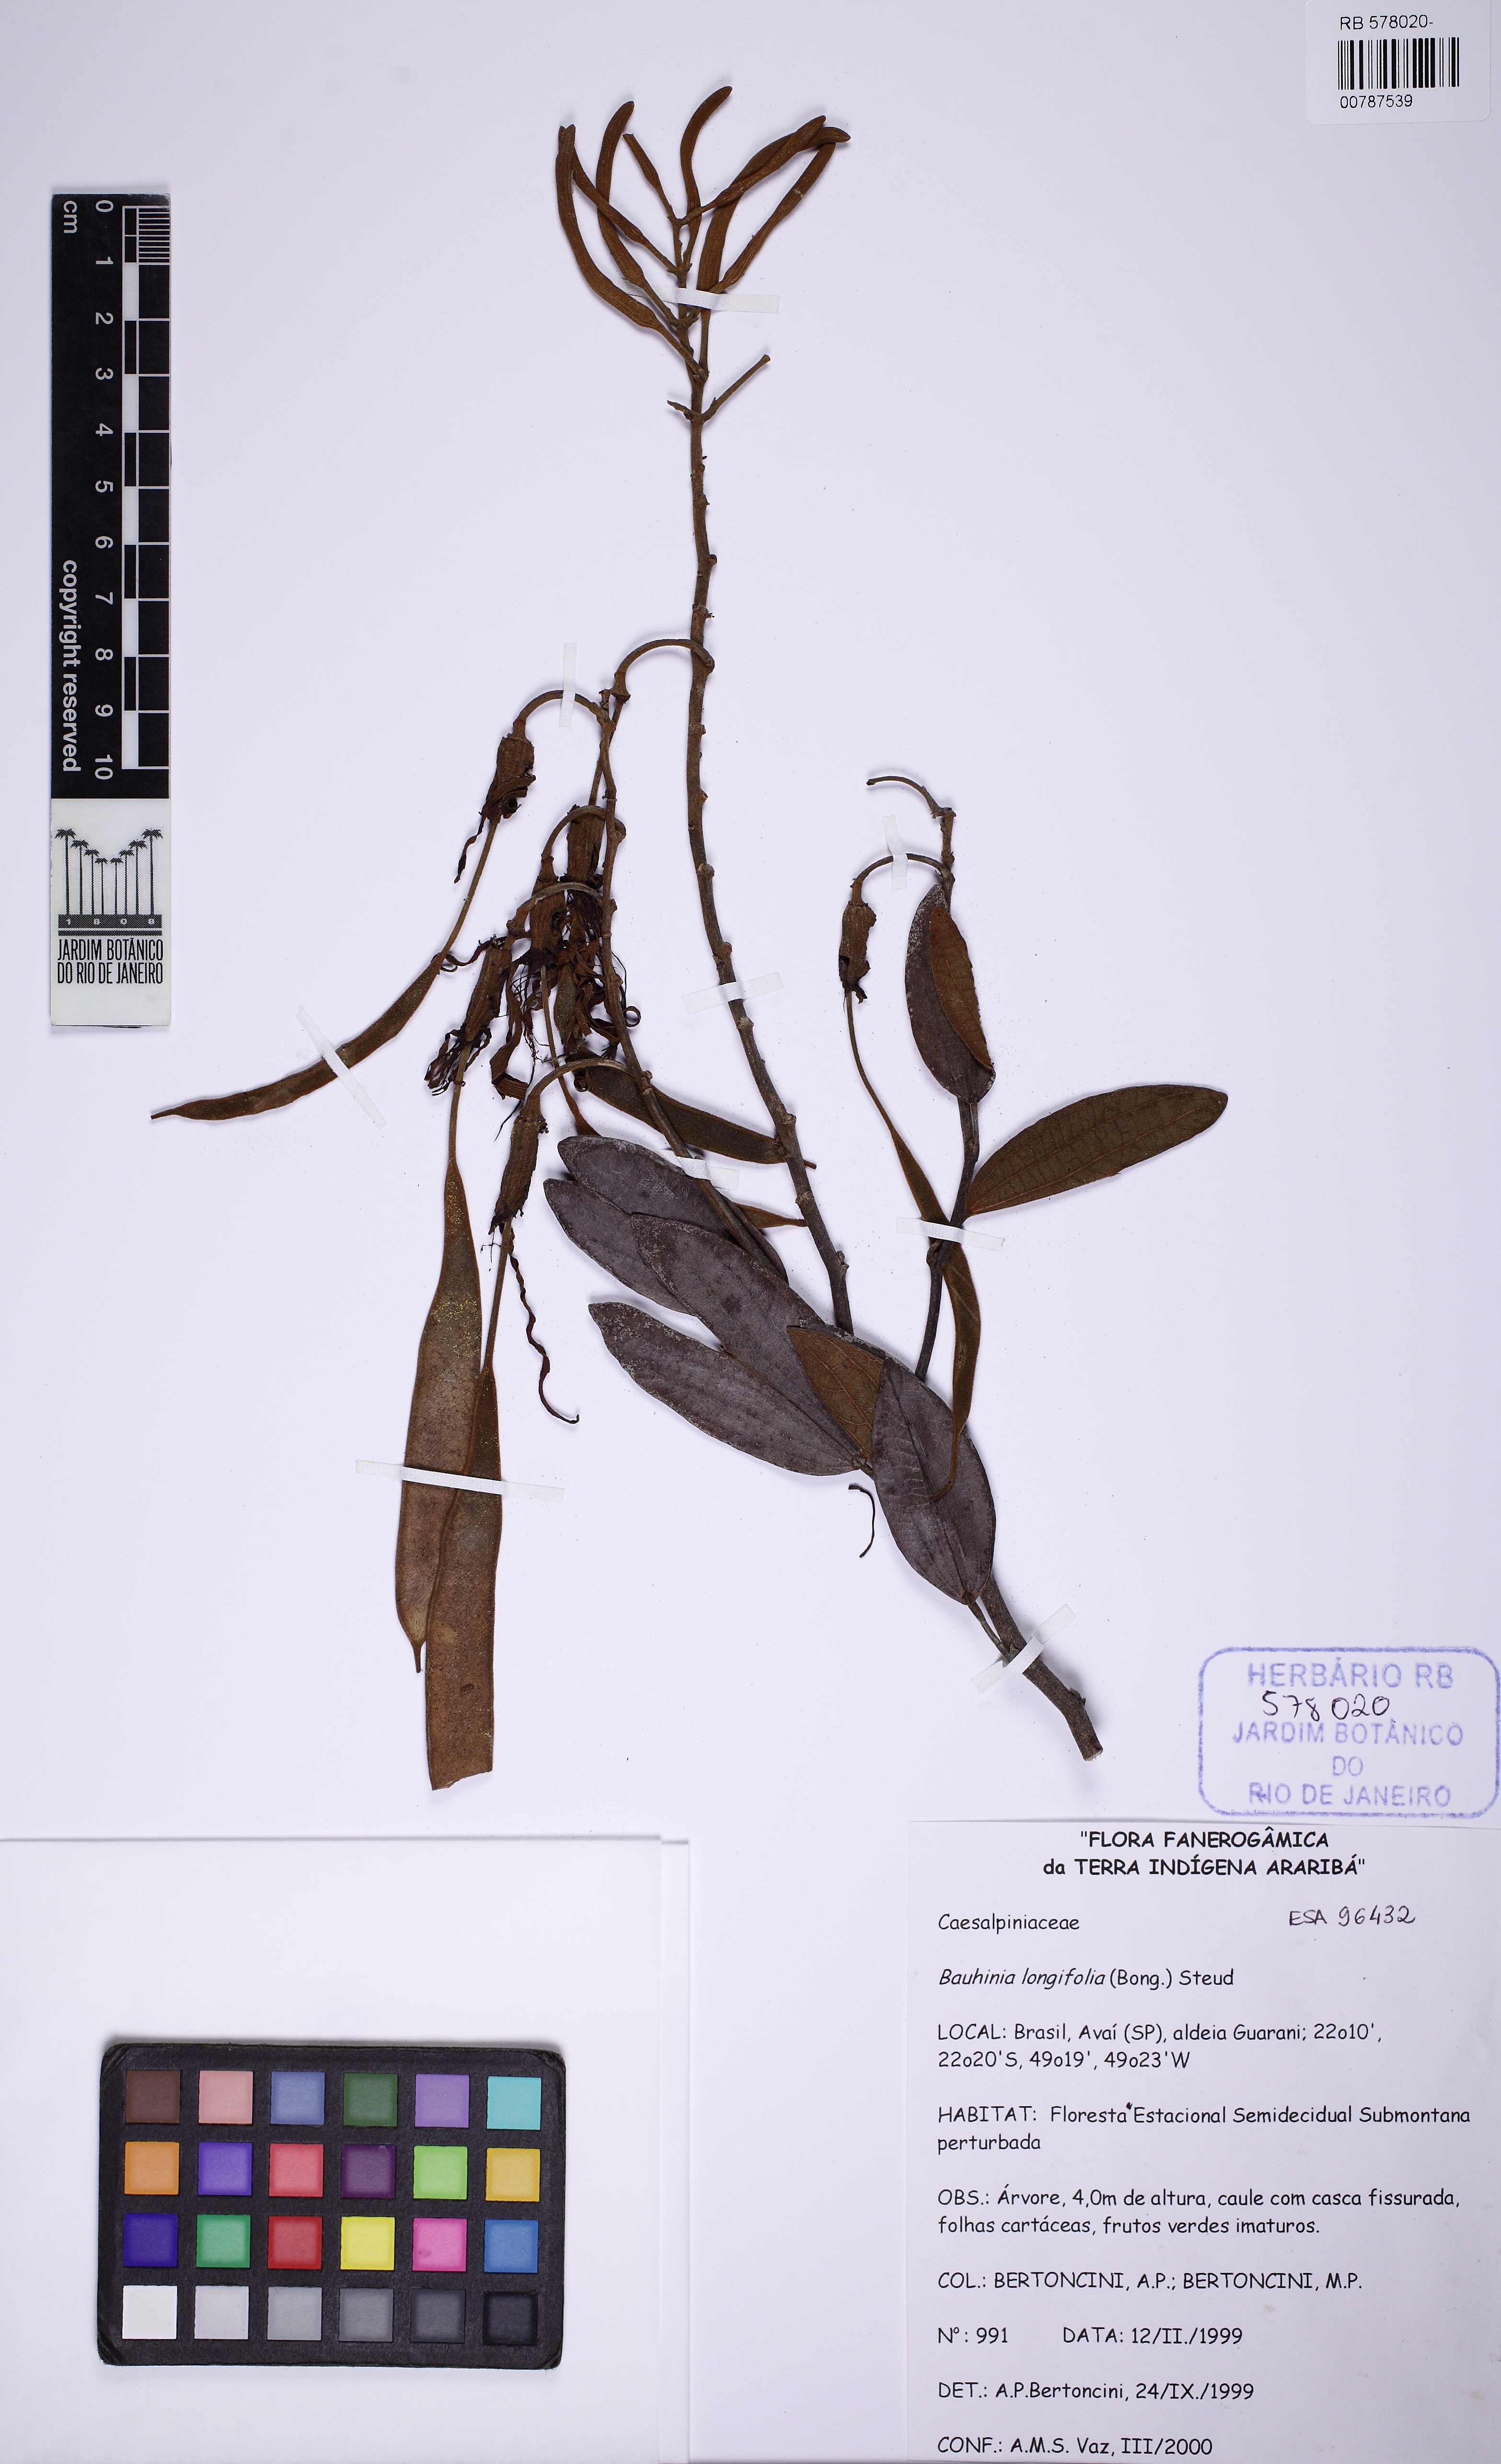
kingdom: Plantae
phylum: Tracheophyta
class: Magnoliopsida
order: Fabales
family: Fabaceae
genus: Bauhinia
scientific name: Bauhinia longifolia
